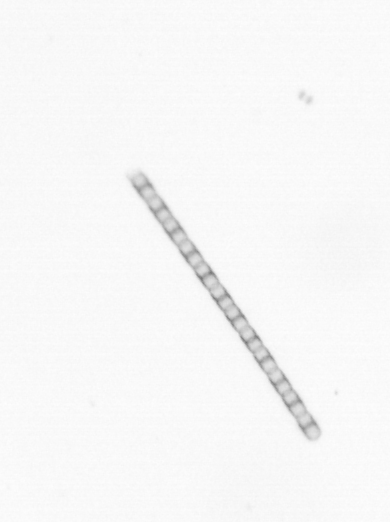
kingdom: Chromista
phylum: Ochrophyta
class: Bacillariophyceae
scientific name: Bacillariophyceae
